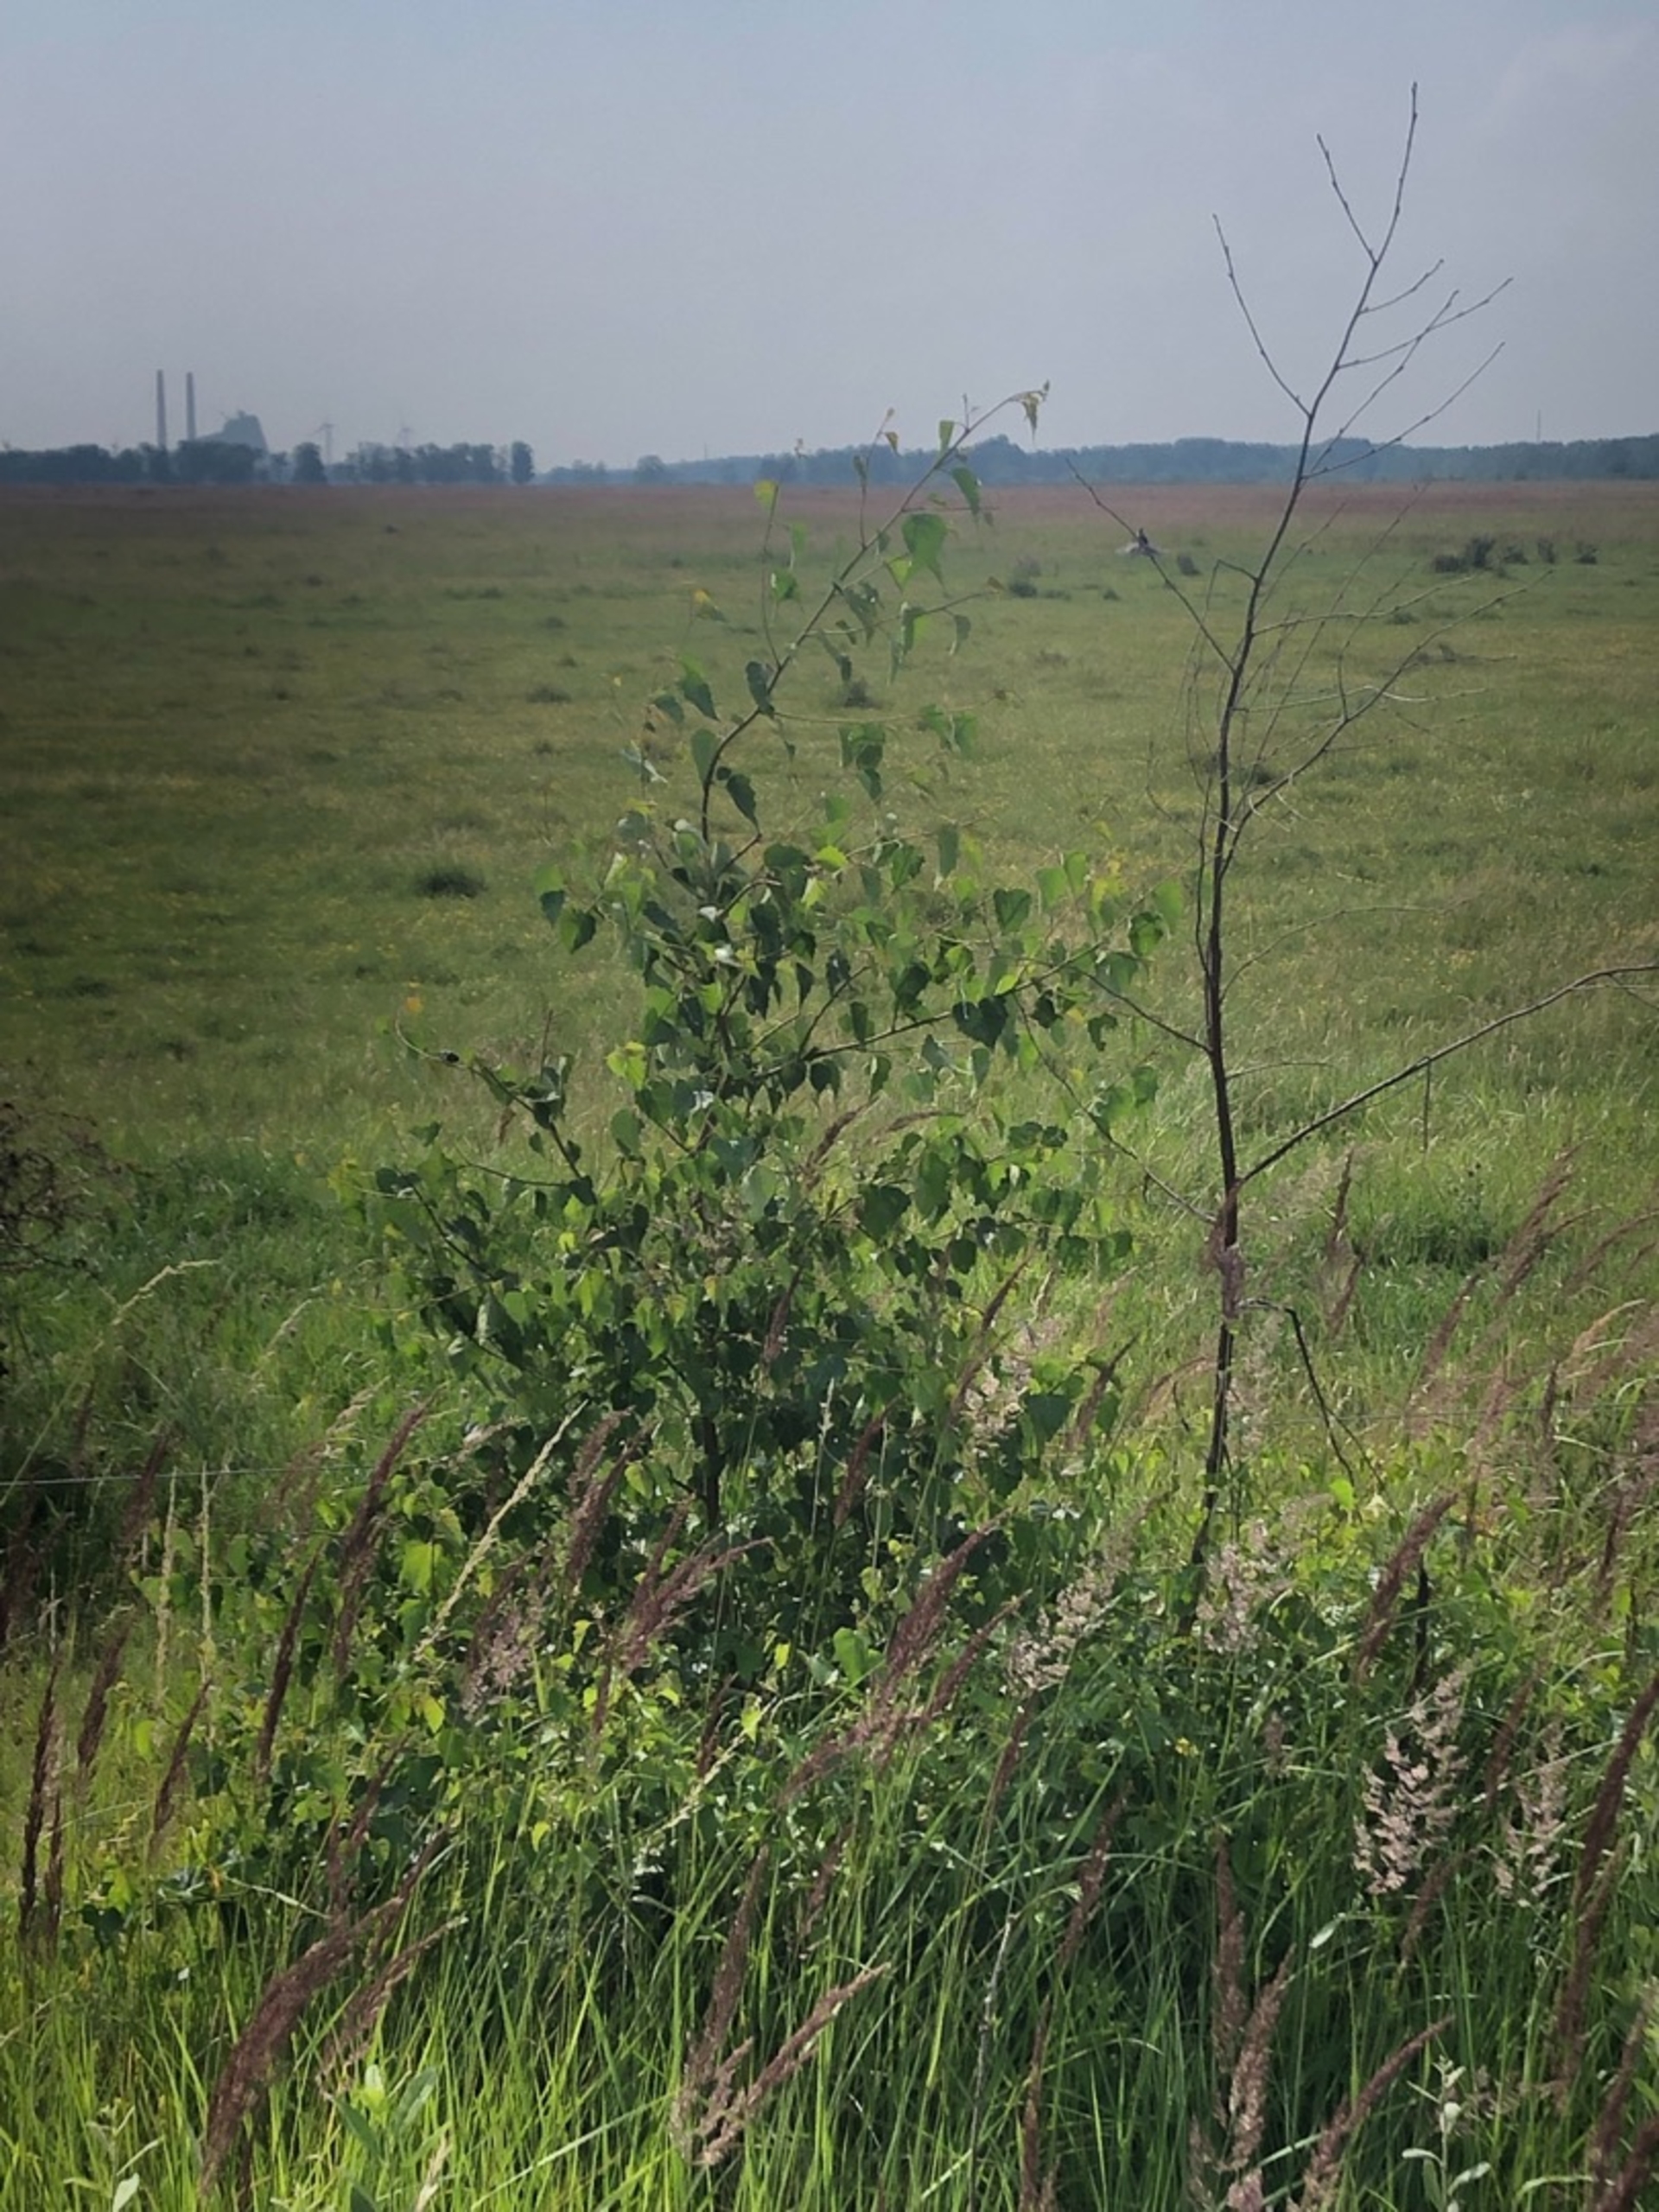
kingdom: Plantae
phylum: Tracheophyta
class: Magnoliopsida
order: Fagales
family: Betulaceae
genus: Betula
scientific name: Betula pendula
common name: Vorte-birk
